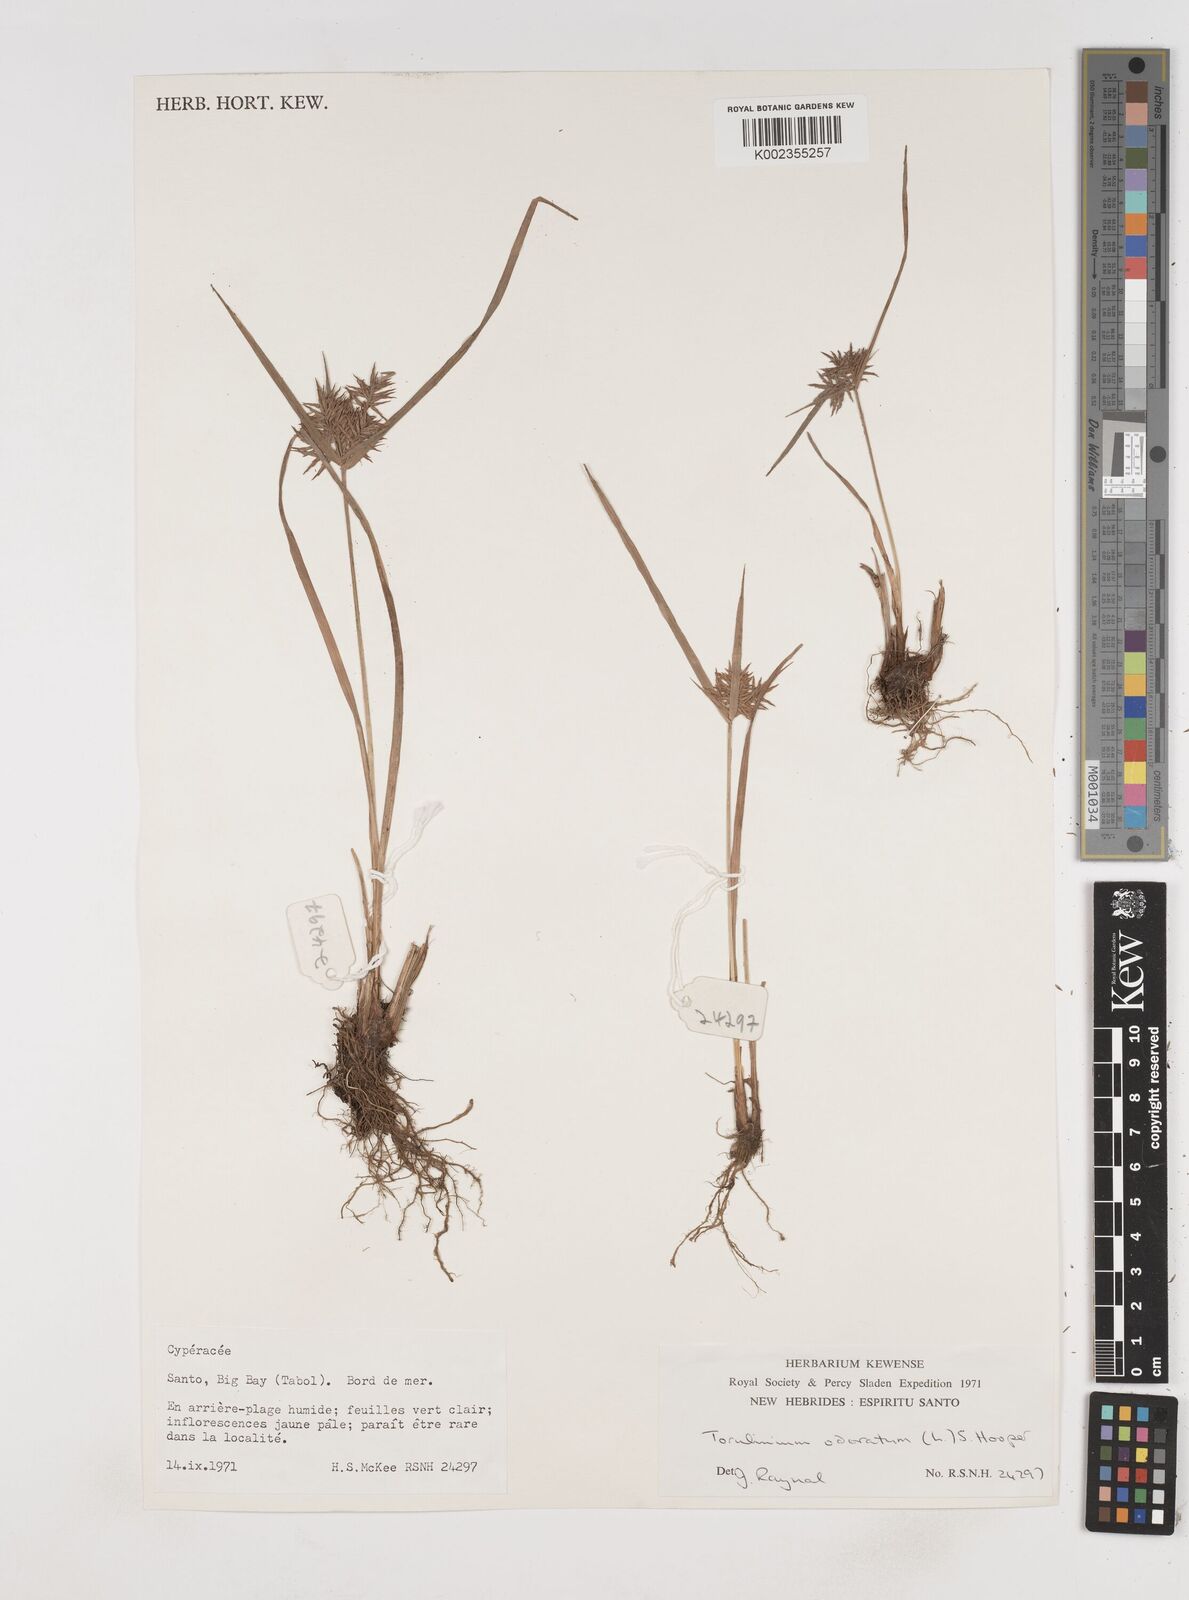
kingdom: Plantae
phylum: Tracheophyta
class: Liliopsida
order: Poales
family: Cyperaceae
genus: Cyperus
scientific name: Cyperus odoratus
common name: Fragrant flatsedge
